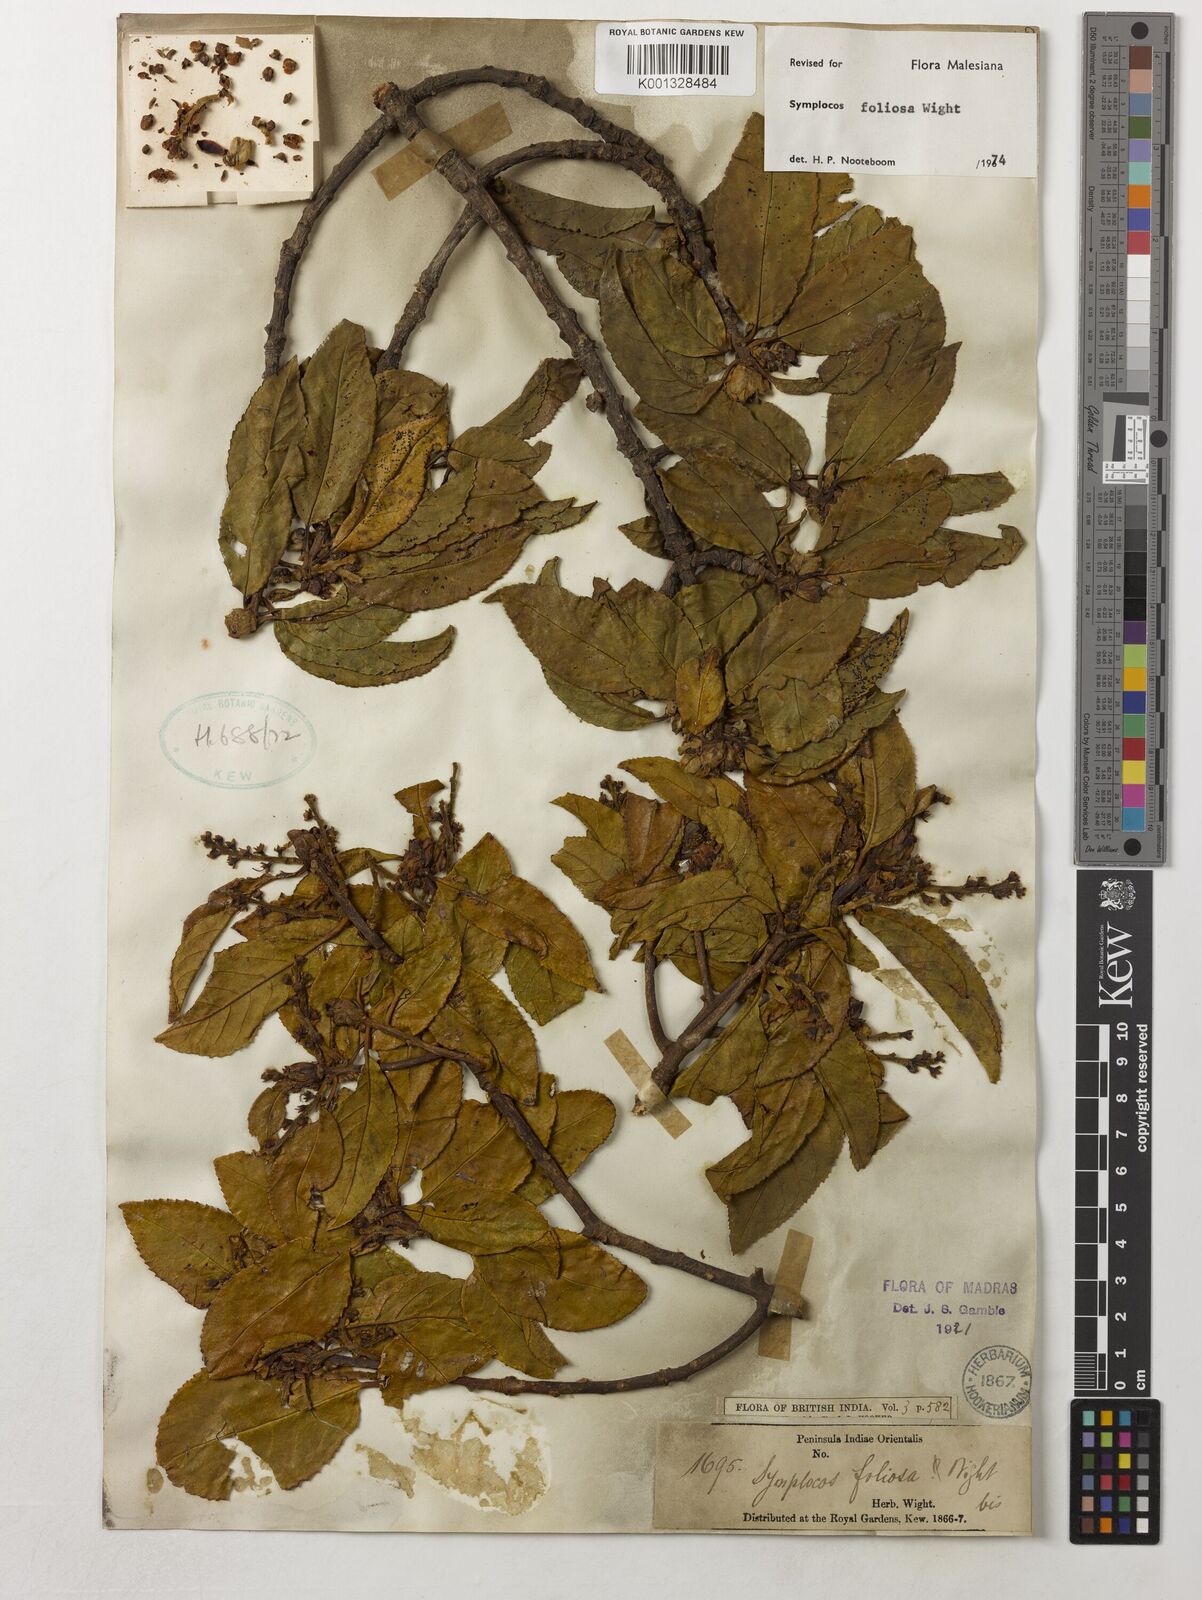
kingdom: Plantae
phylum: Tracheophyta
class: Magnoliopsida
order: Ericales
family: Symplocaceae
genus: Symplocos
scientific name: Symplocos foliosa
